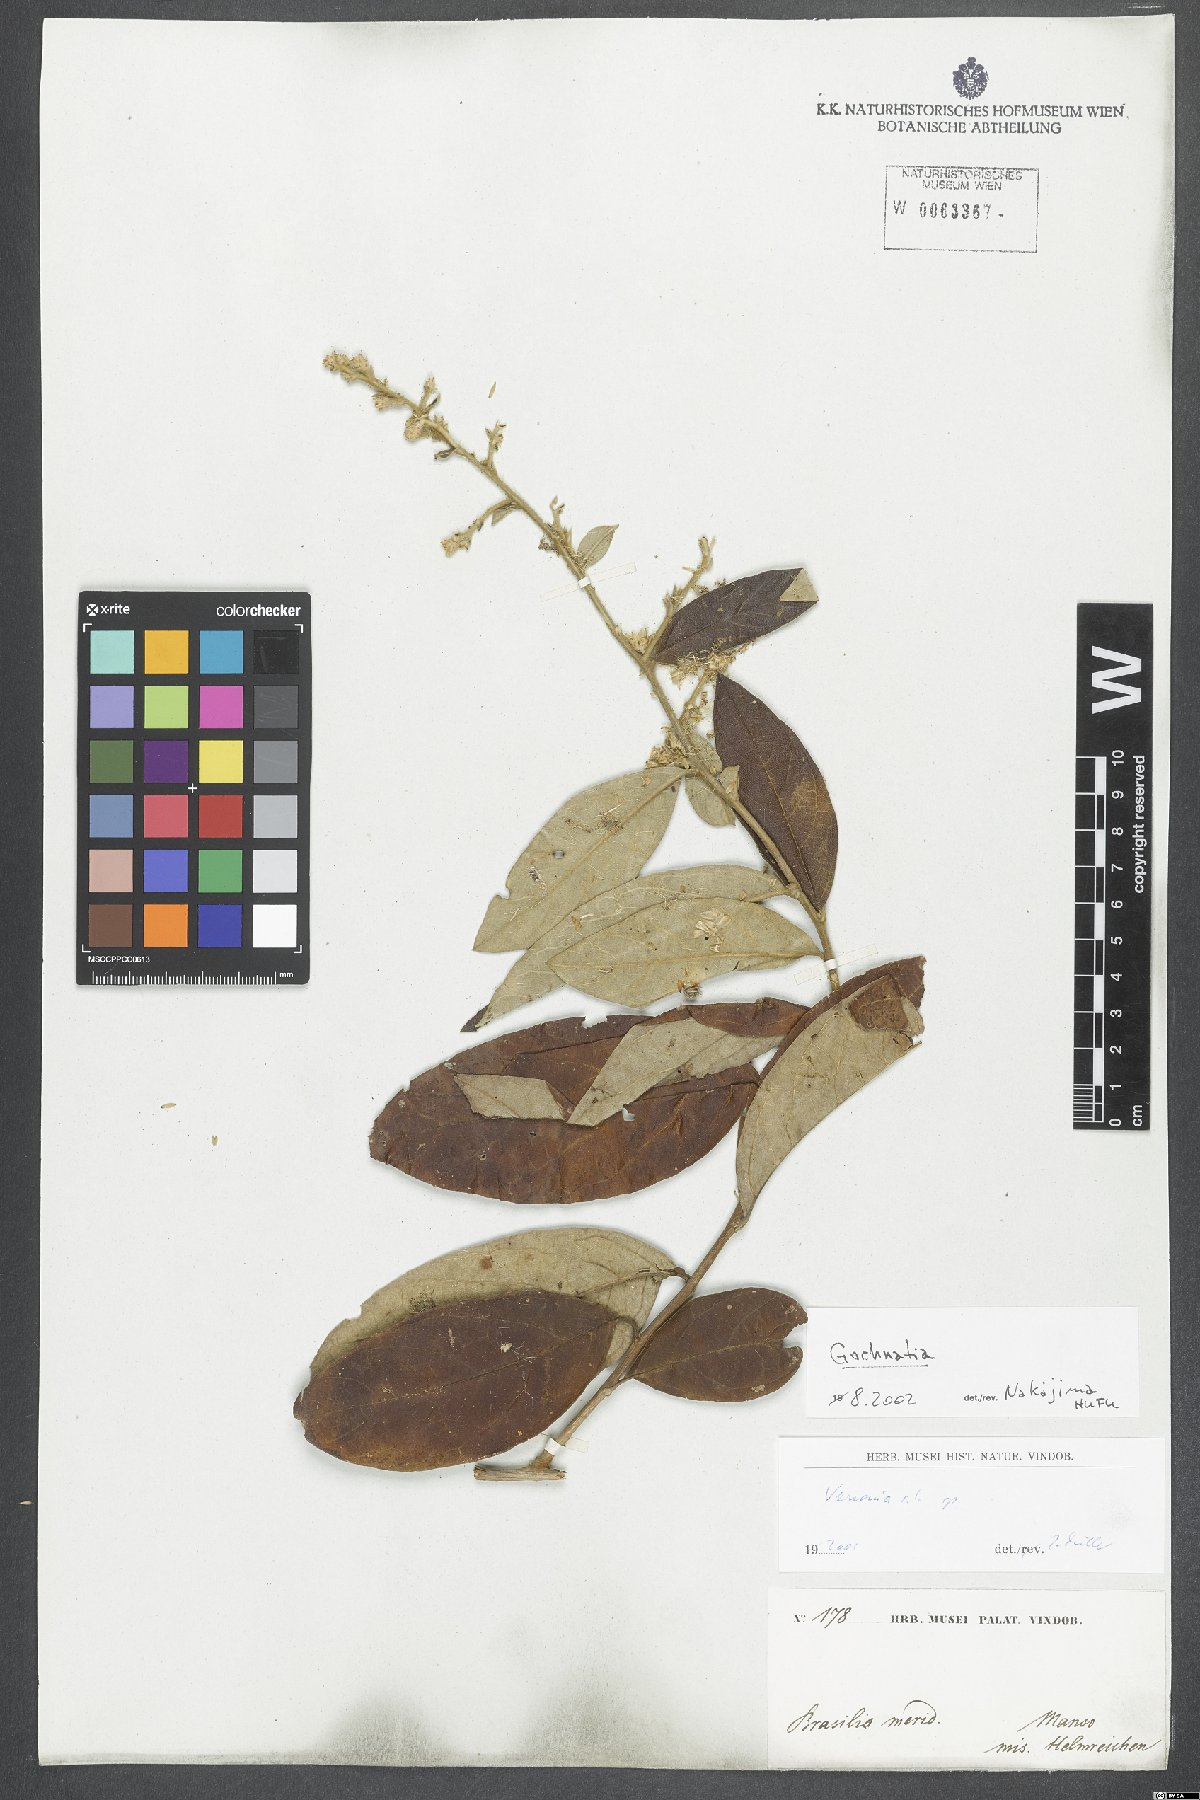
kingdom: Plantae
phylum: Tracheophyta
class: Magnoliopsida
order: Asterales
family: Asteraceae
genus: Gochnatia
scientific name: Gochnatia
